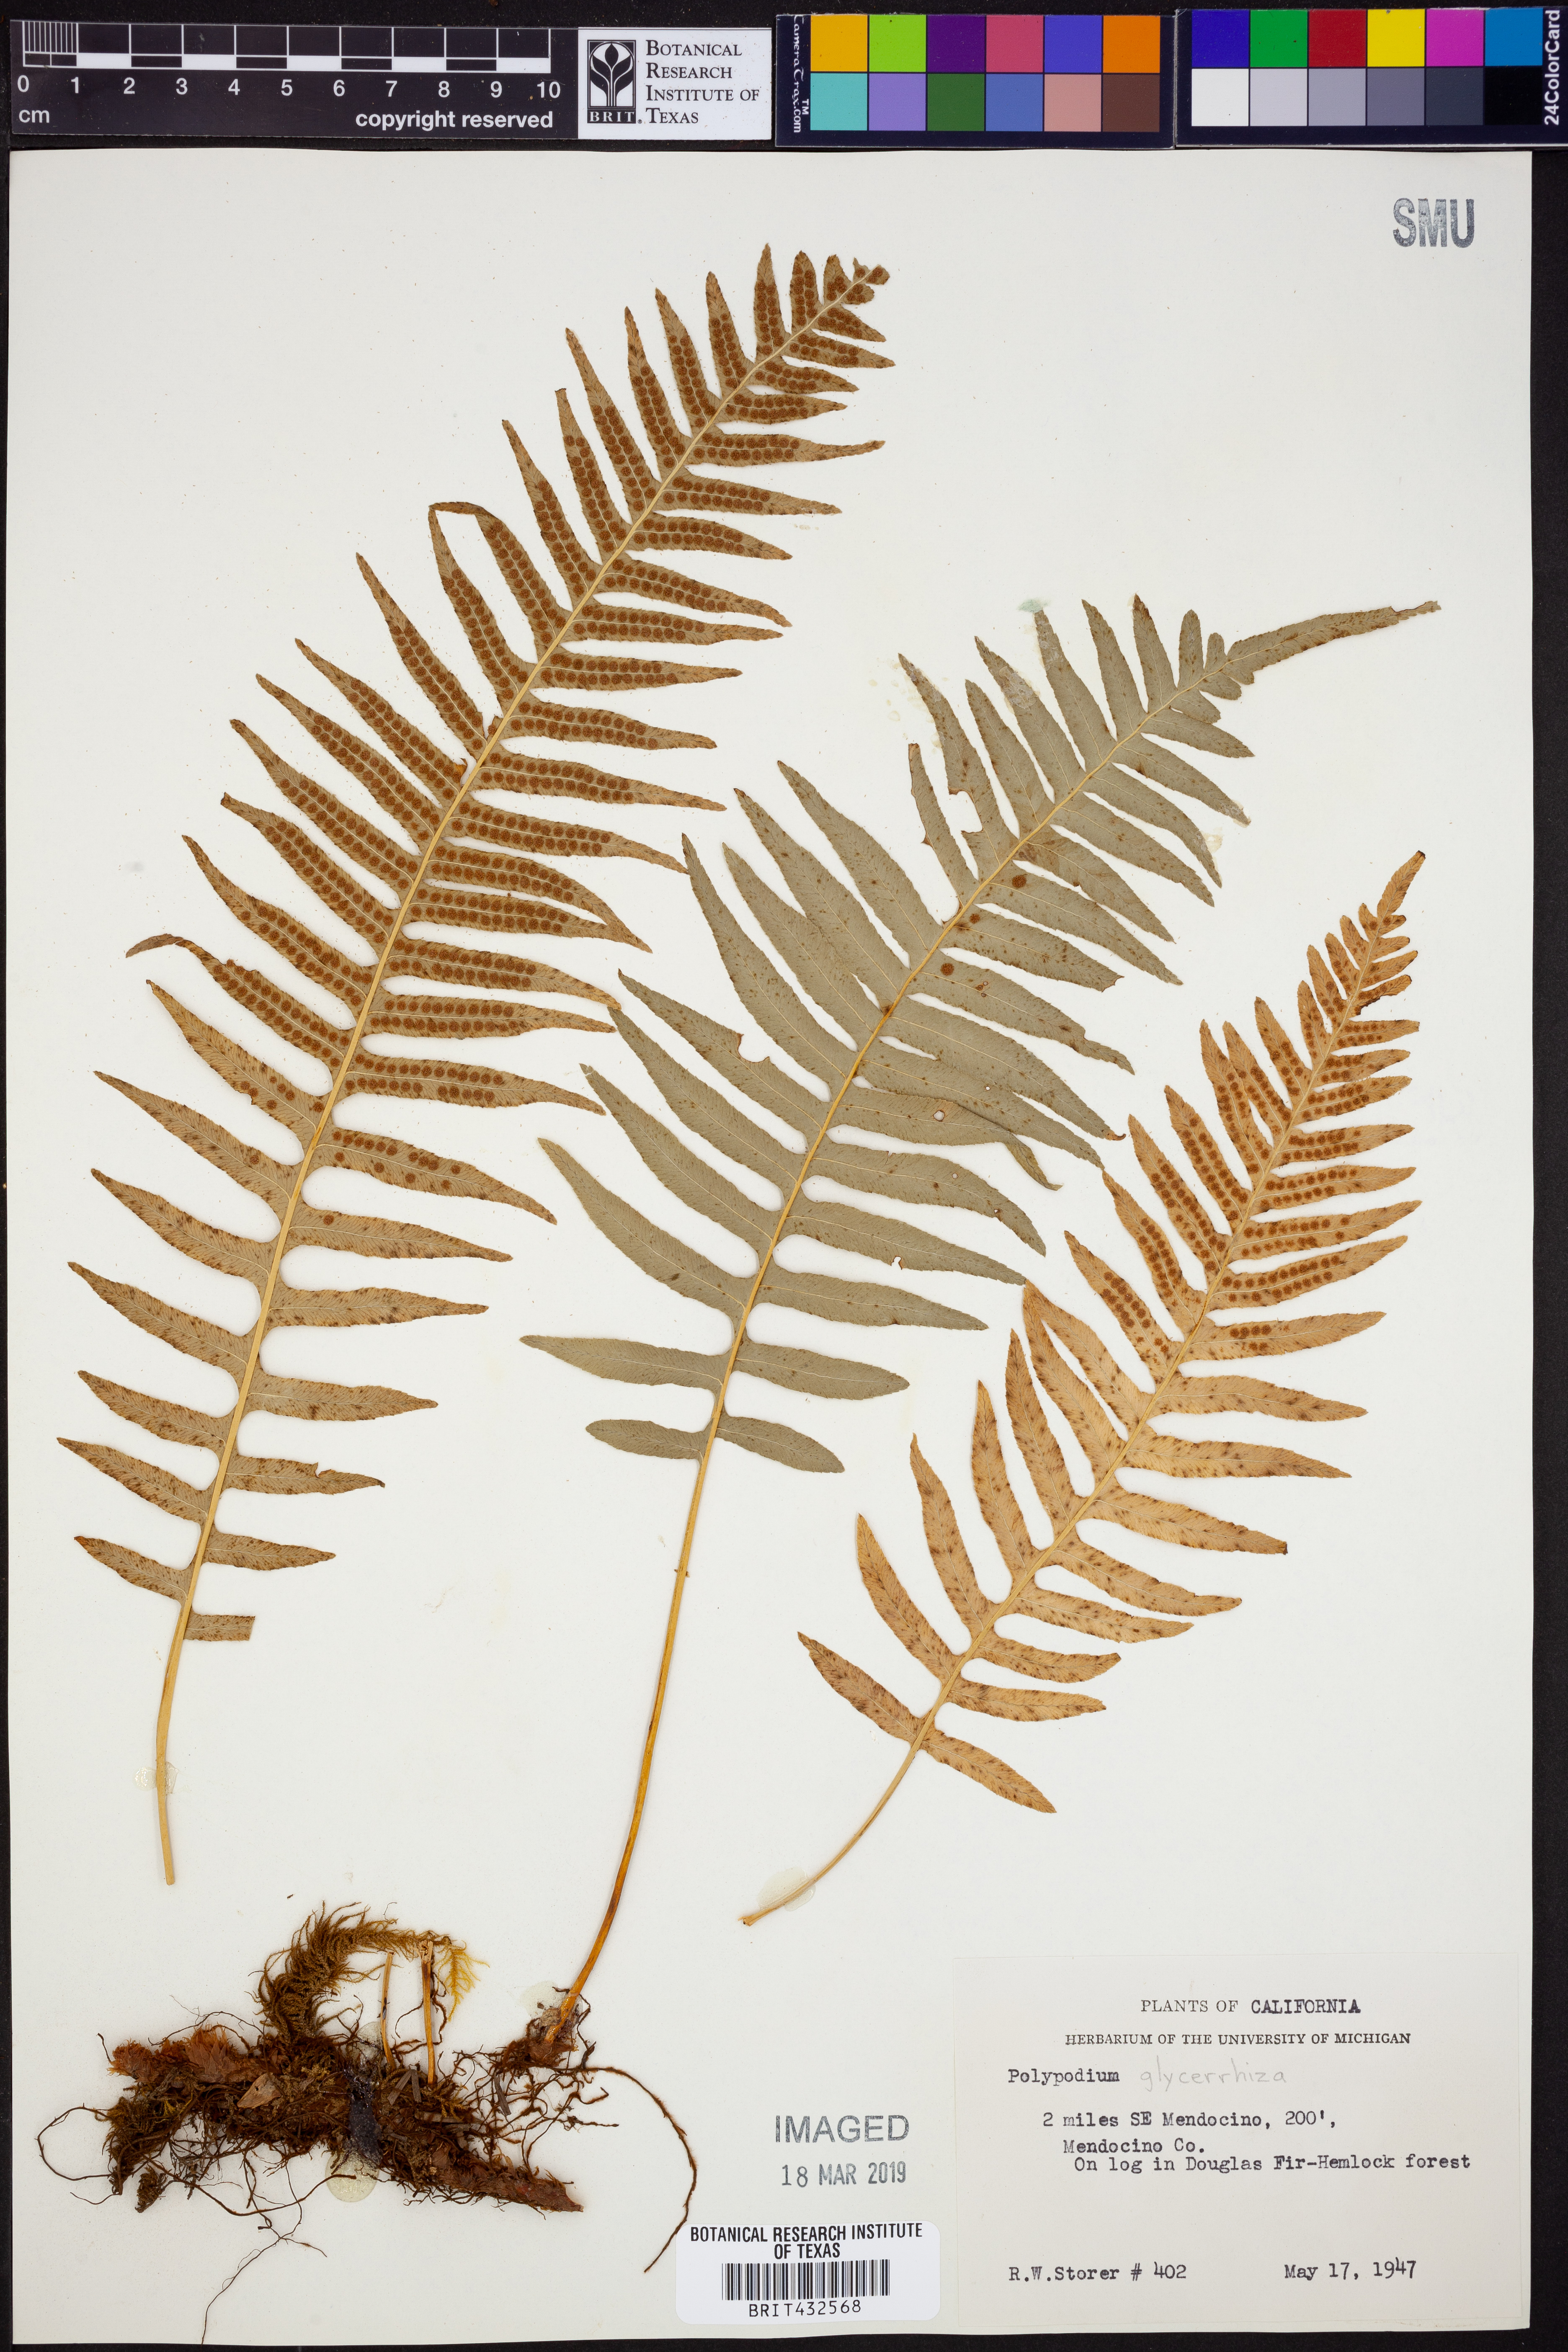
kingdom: Plantae
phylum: Tracheophyta
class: Polypodiopsida
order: Polypodiales
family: Polypodiaceae
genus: Polypodium
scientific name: Polypodium glycyrrhiza
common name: Licorice fern
